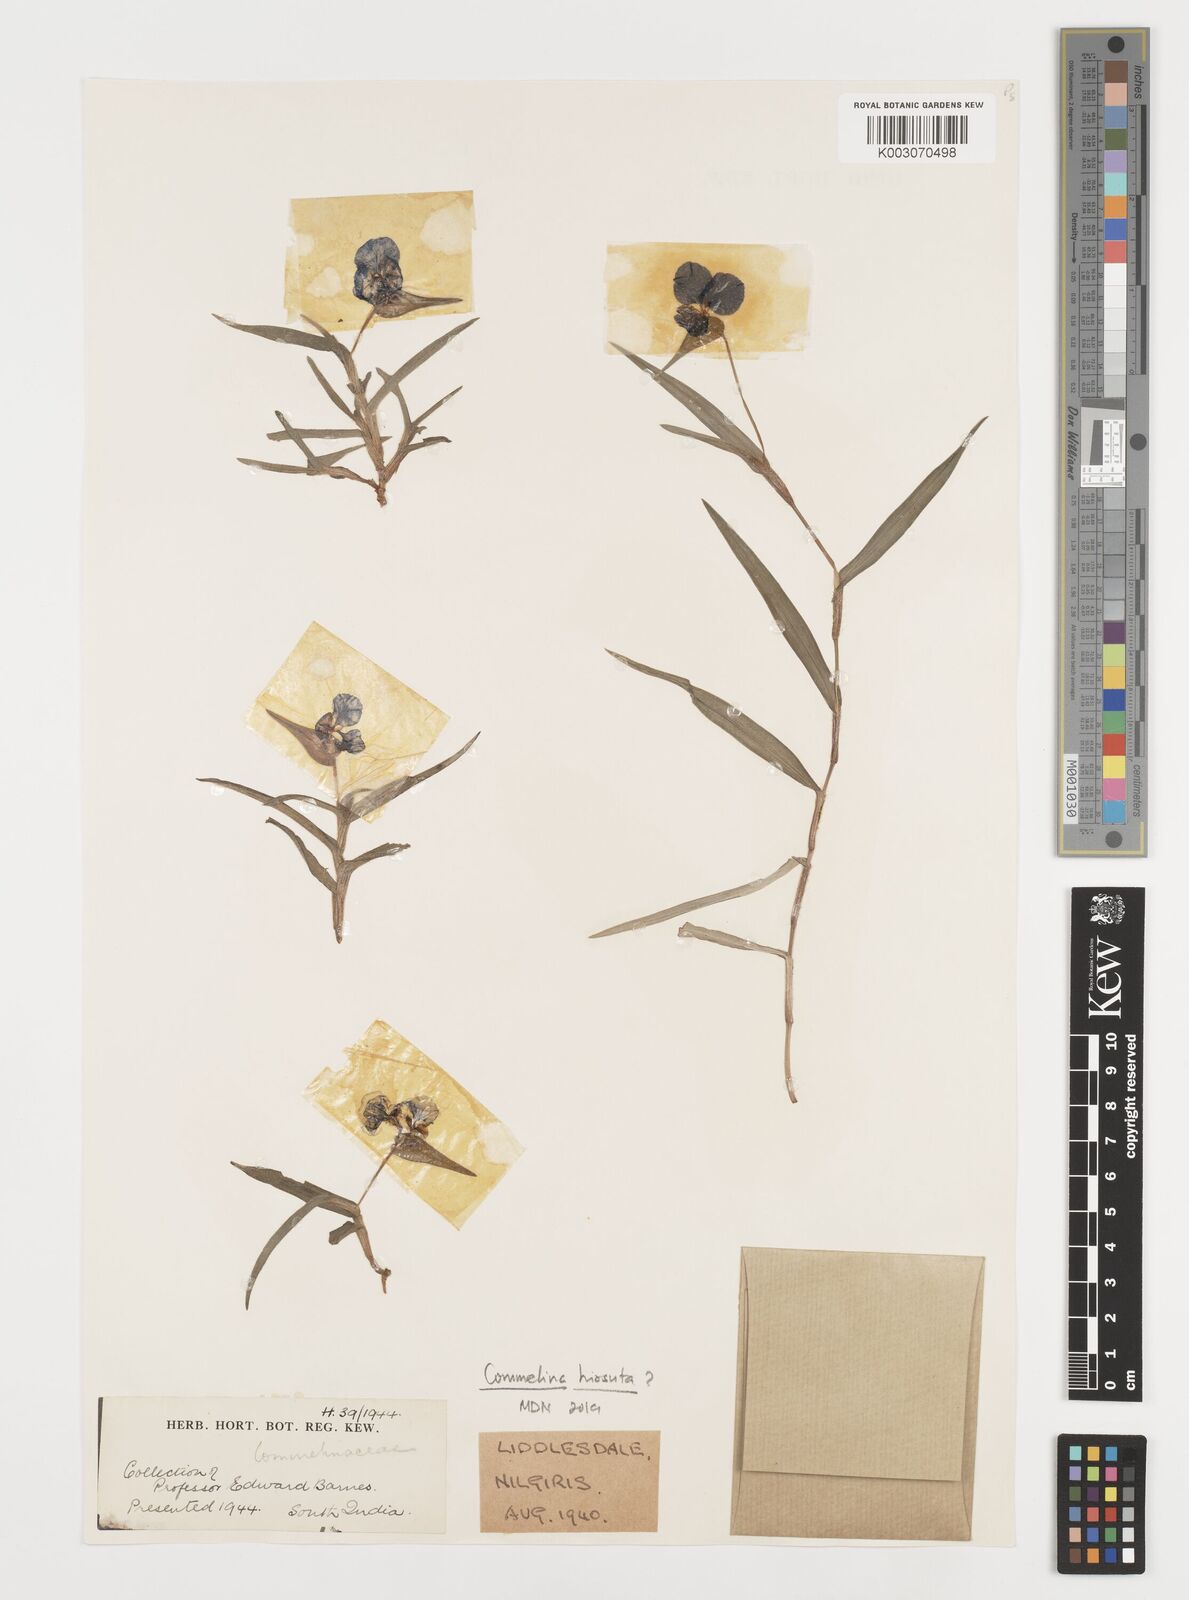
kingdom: Plantae
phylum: Tracheophyta
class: Liliopsida
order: Commelinales
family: Commelinaceae
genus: Commelina
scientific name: Commelina
